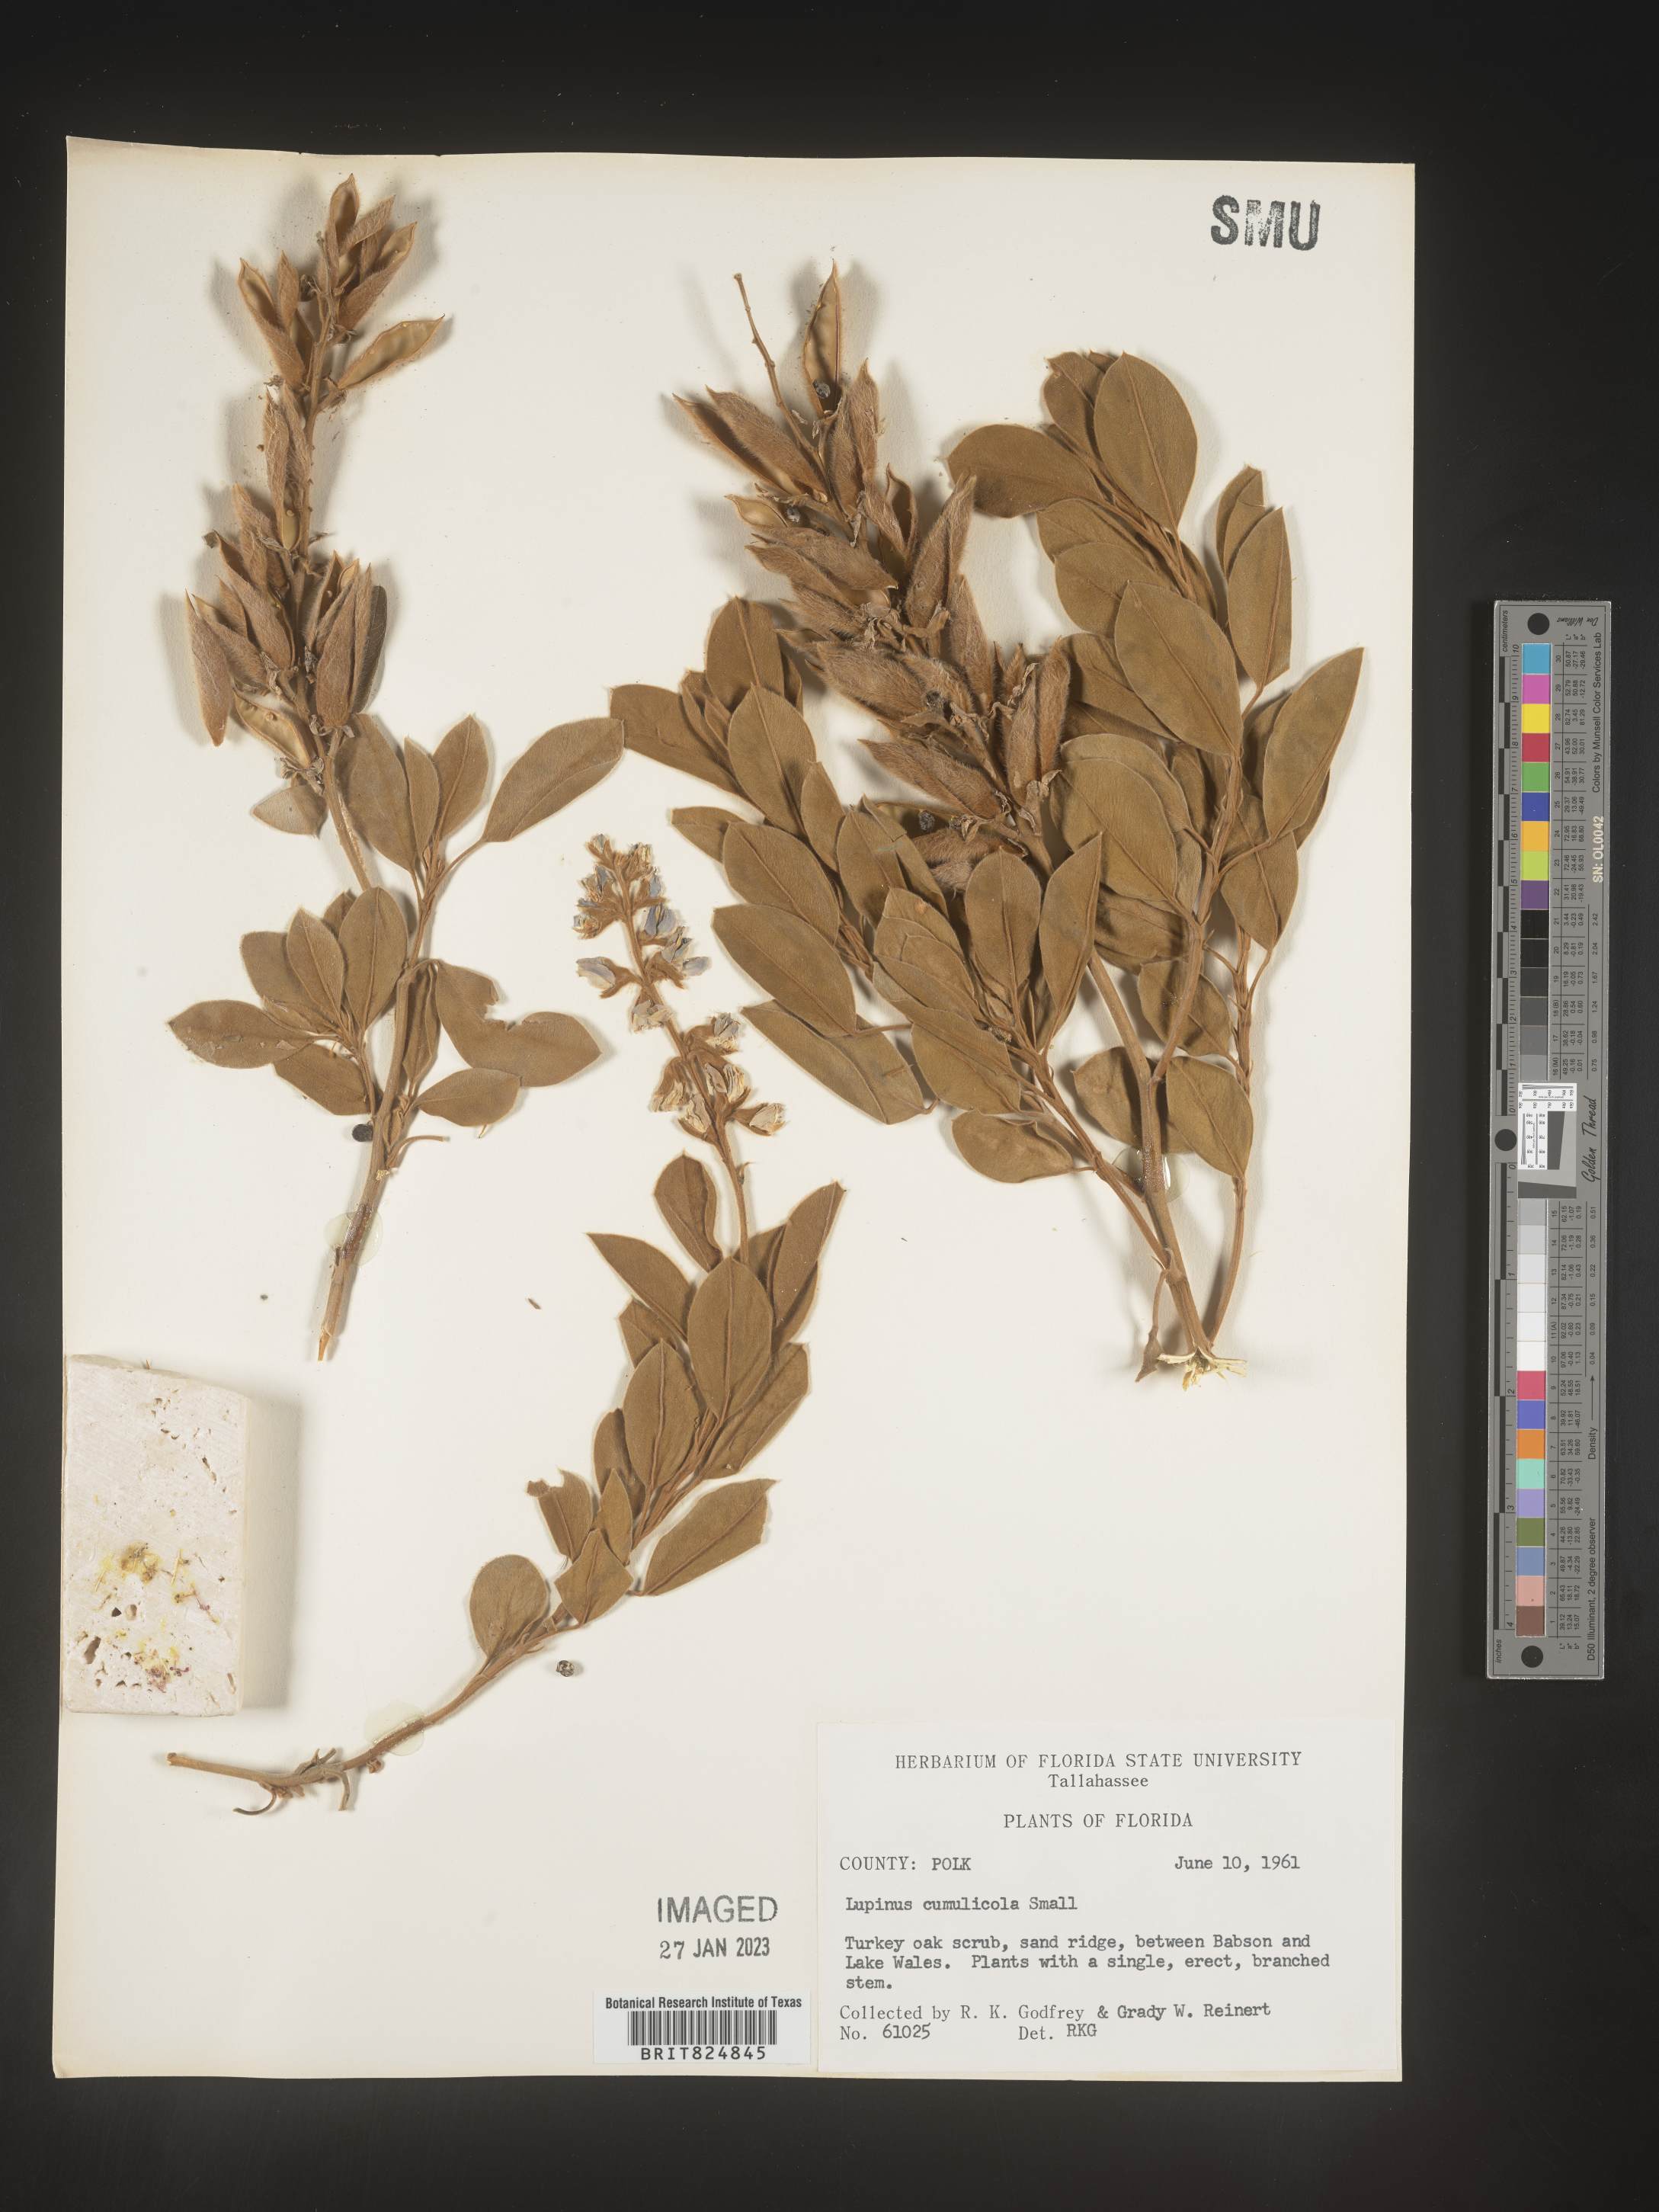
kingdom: Plantae
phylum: Tracheophyta
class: Magnoliopsida
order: Fabales
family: Fabaceae
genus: Lupinus
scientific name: Lupinus
